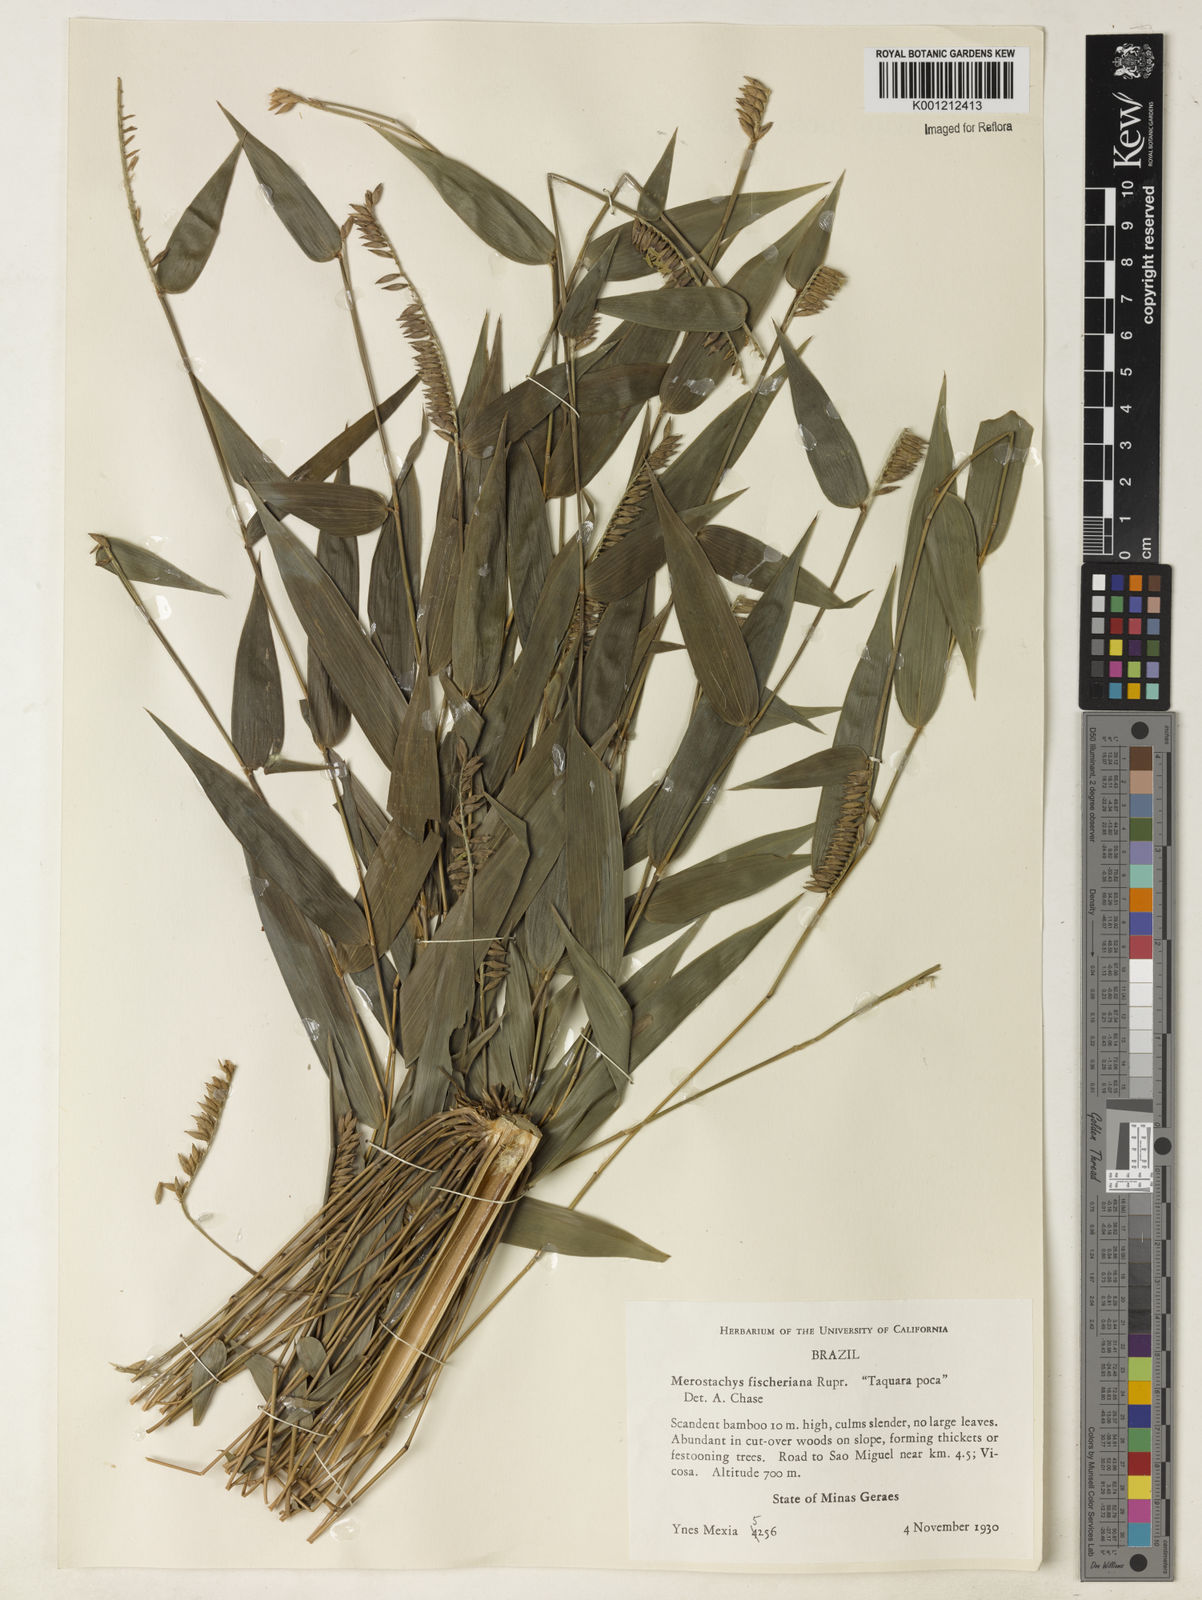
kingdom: Plantae
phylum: Tracheophyta
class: Liliopsida
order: Poales
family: Poaceae
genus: Merostachys
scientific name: Merostachys
